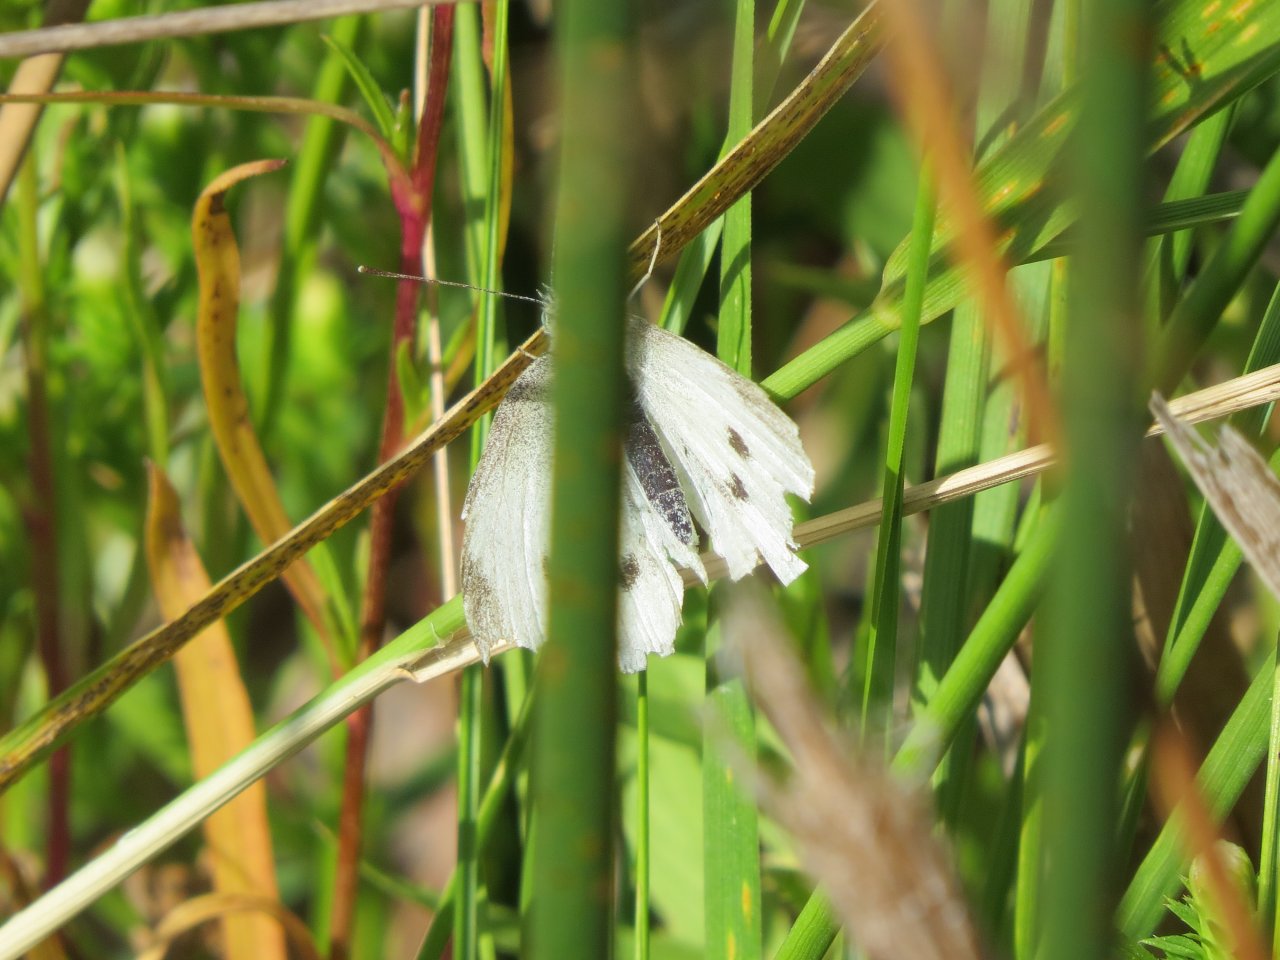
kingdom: Animalia
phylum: Arthropoda
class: Insecta
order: Lepidoptera
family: Pieridae
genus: Pieris
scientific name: Pieris rapae
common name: Cabbage White
